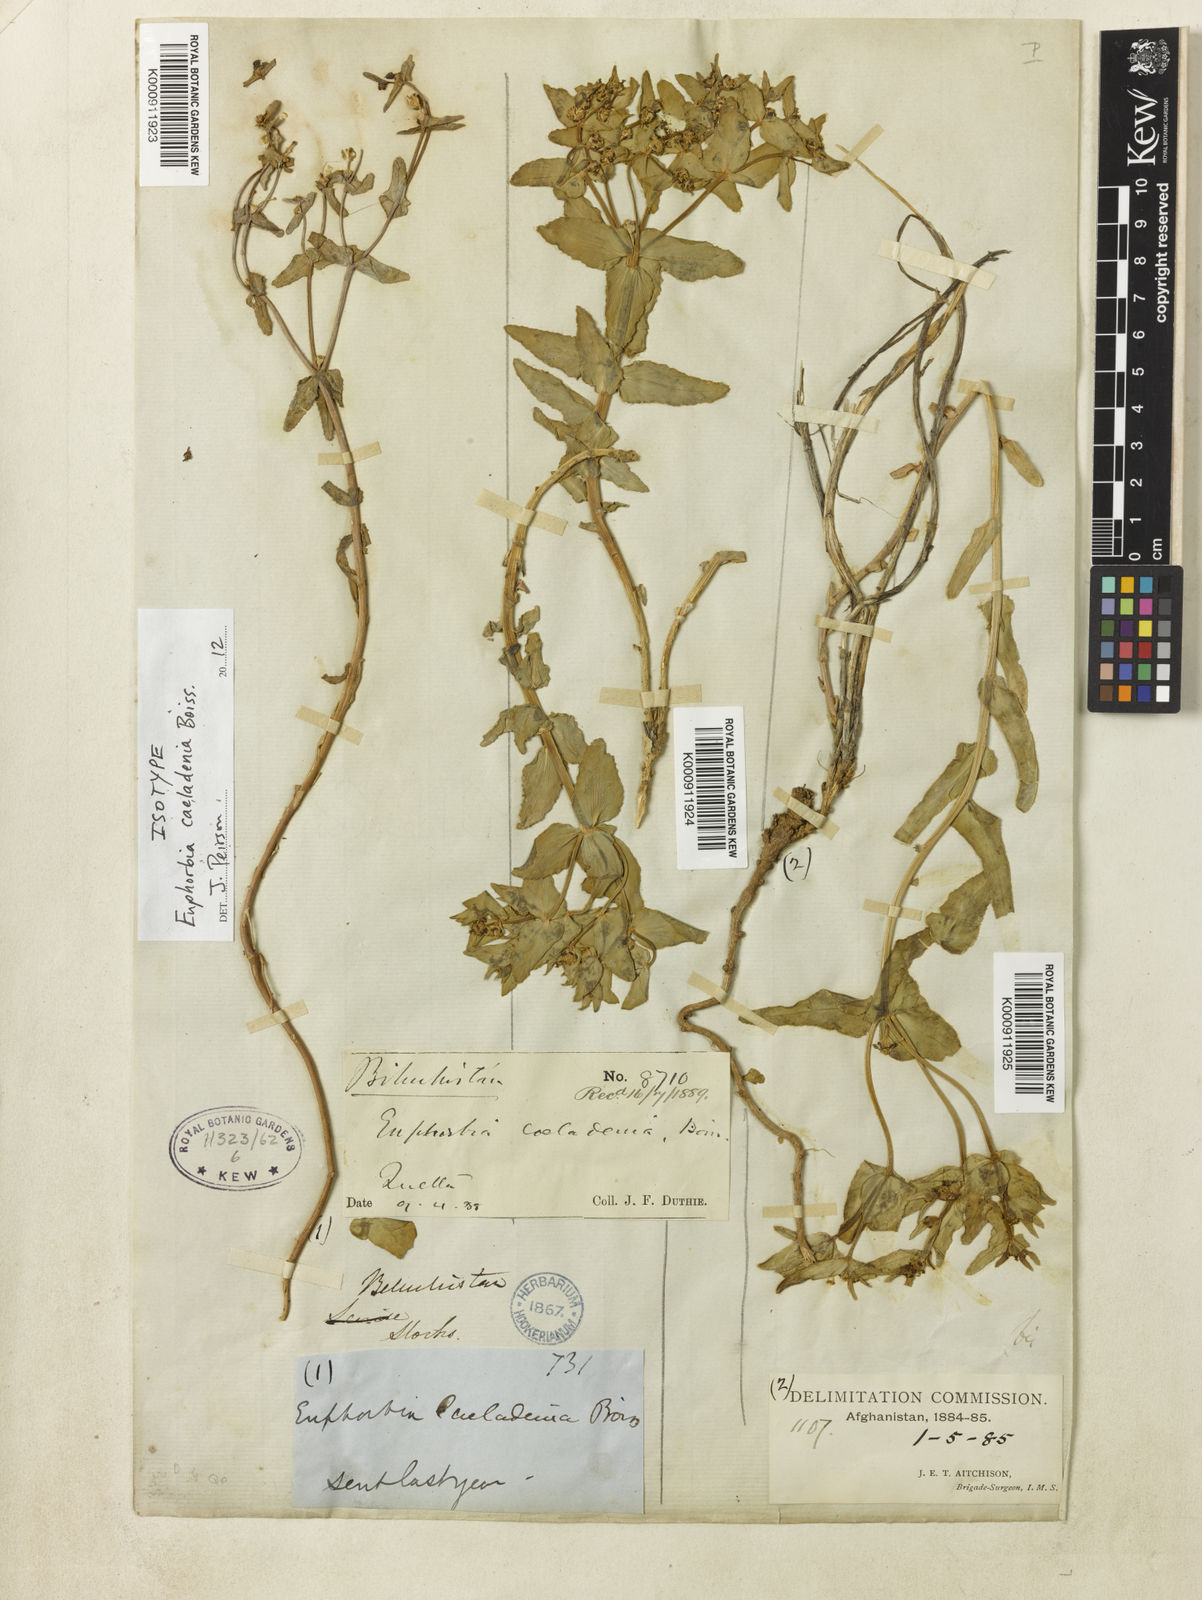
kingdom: Plantae
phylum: Tracheophyta
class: Magnoliopsida
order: Malpighiales
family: Euphorbiaceae
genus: Euphorbia
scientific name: Euphorbia caeladenia
